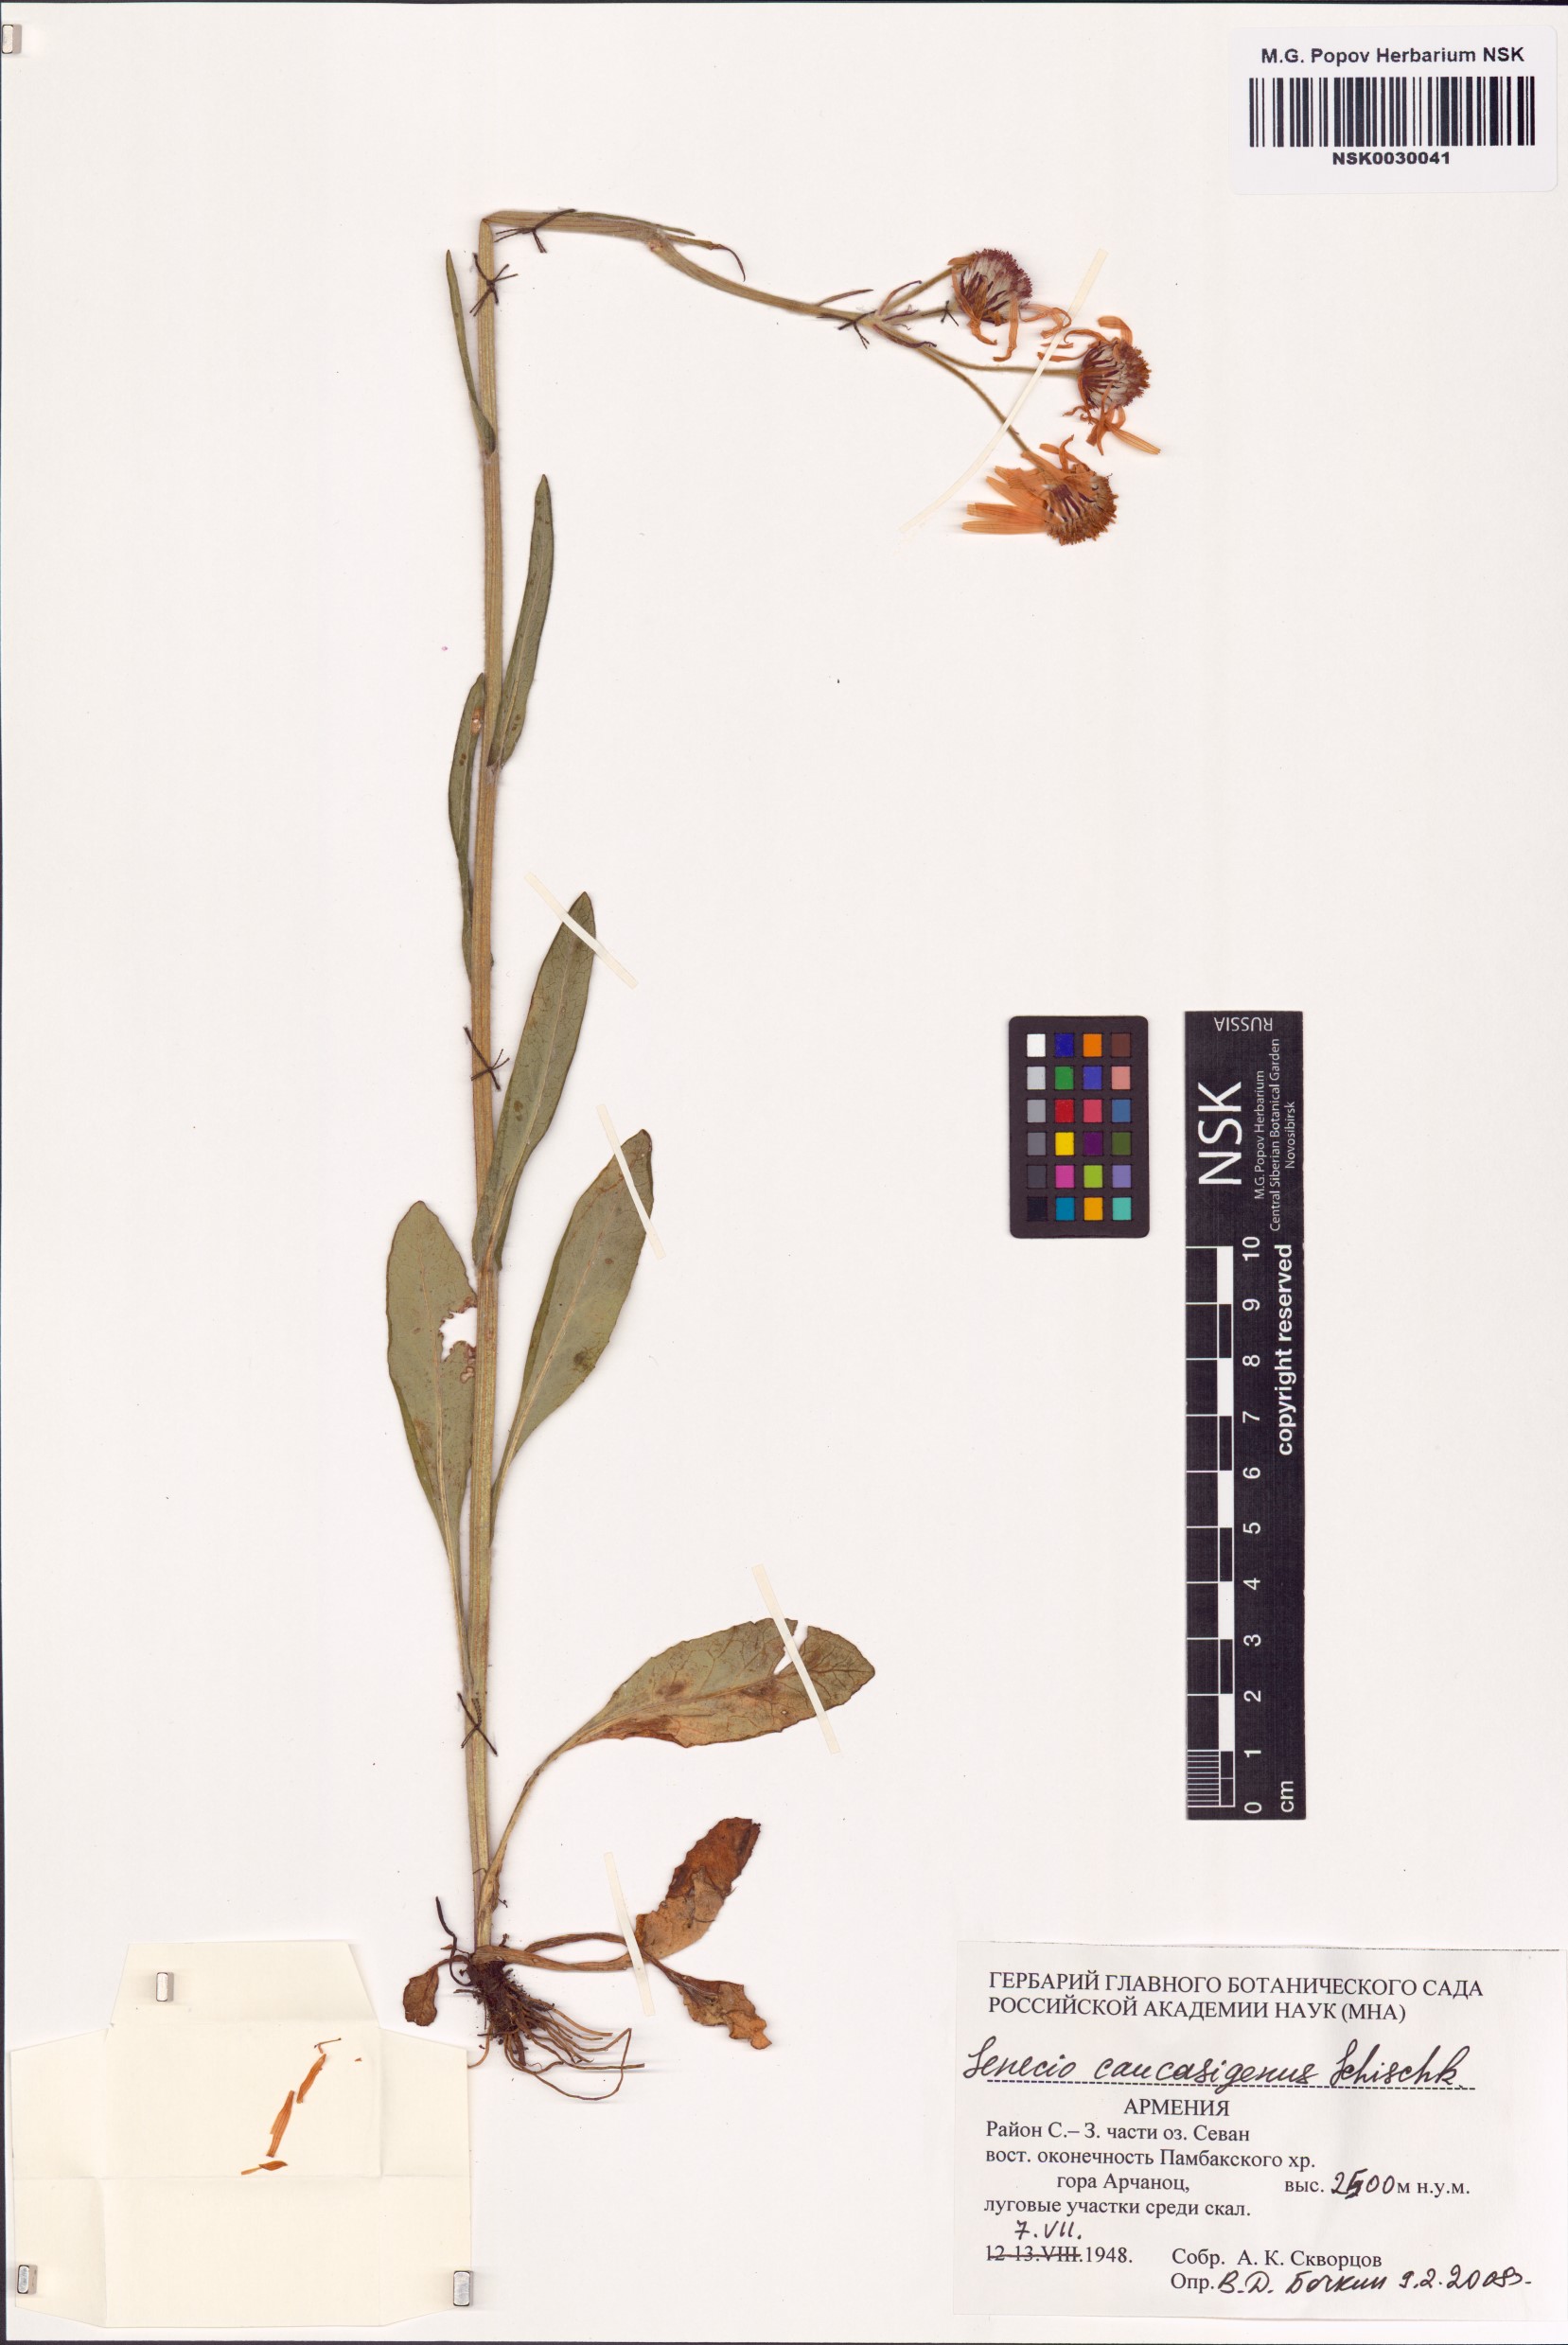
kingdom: Plantae
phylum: Tracheophyta
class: Magnoliopsida
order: Asterales
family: Asteraceae
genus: Tephroseris
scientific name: Tephroseris integrifolia
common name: Field fleawort
